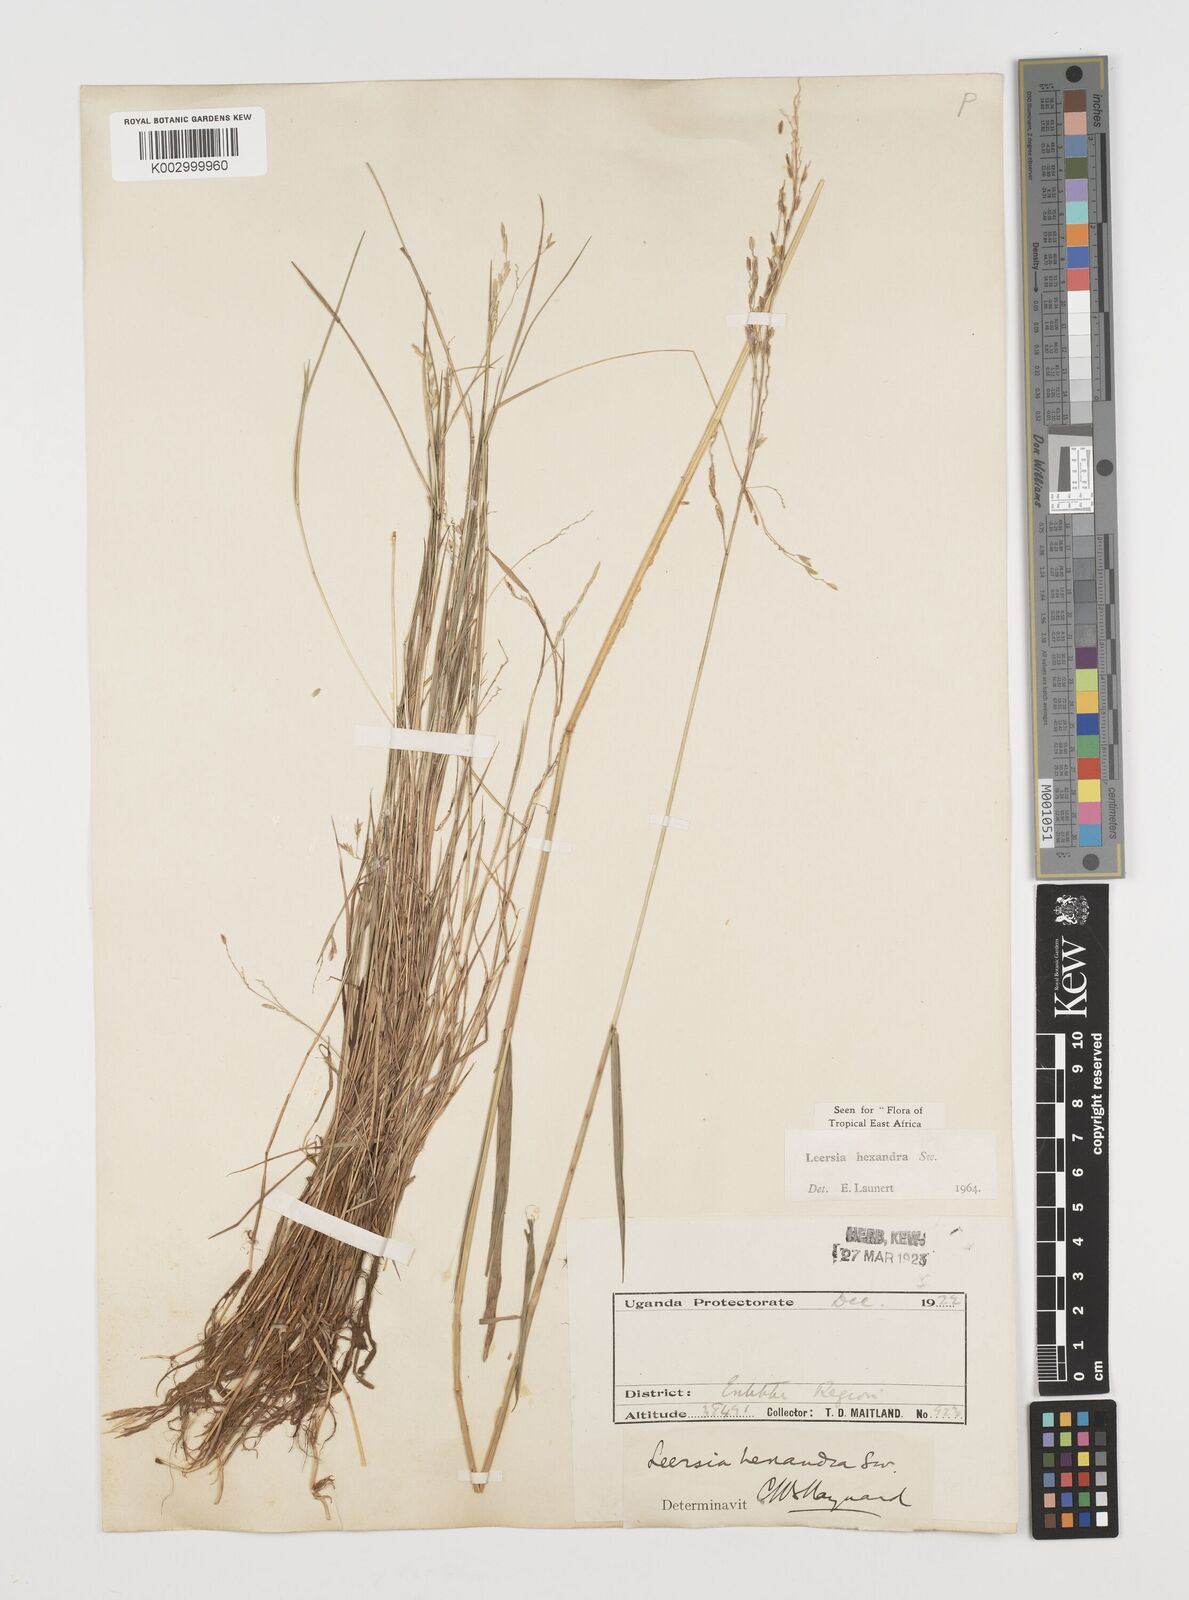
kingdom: Plantae
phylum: Tracheophyta
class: Liliopsida
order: Poales
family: Poaceae
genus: Leersia
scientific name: Leersia hexandra
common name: Southern cut grass
